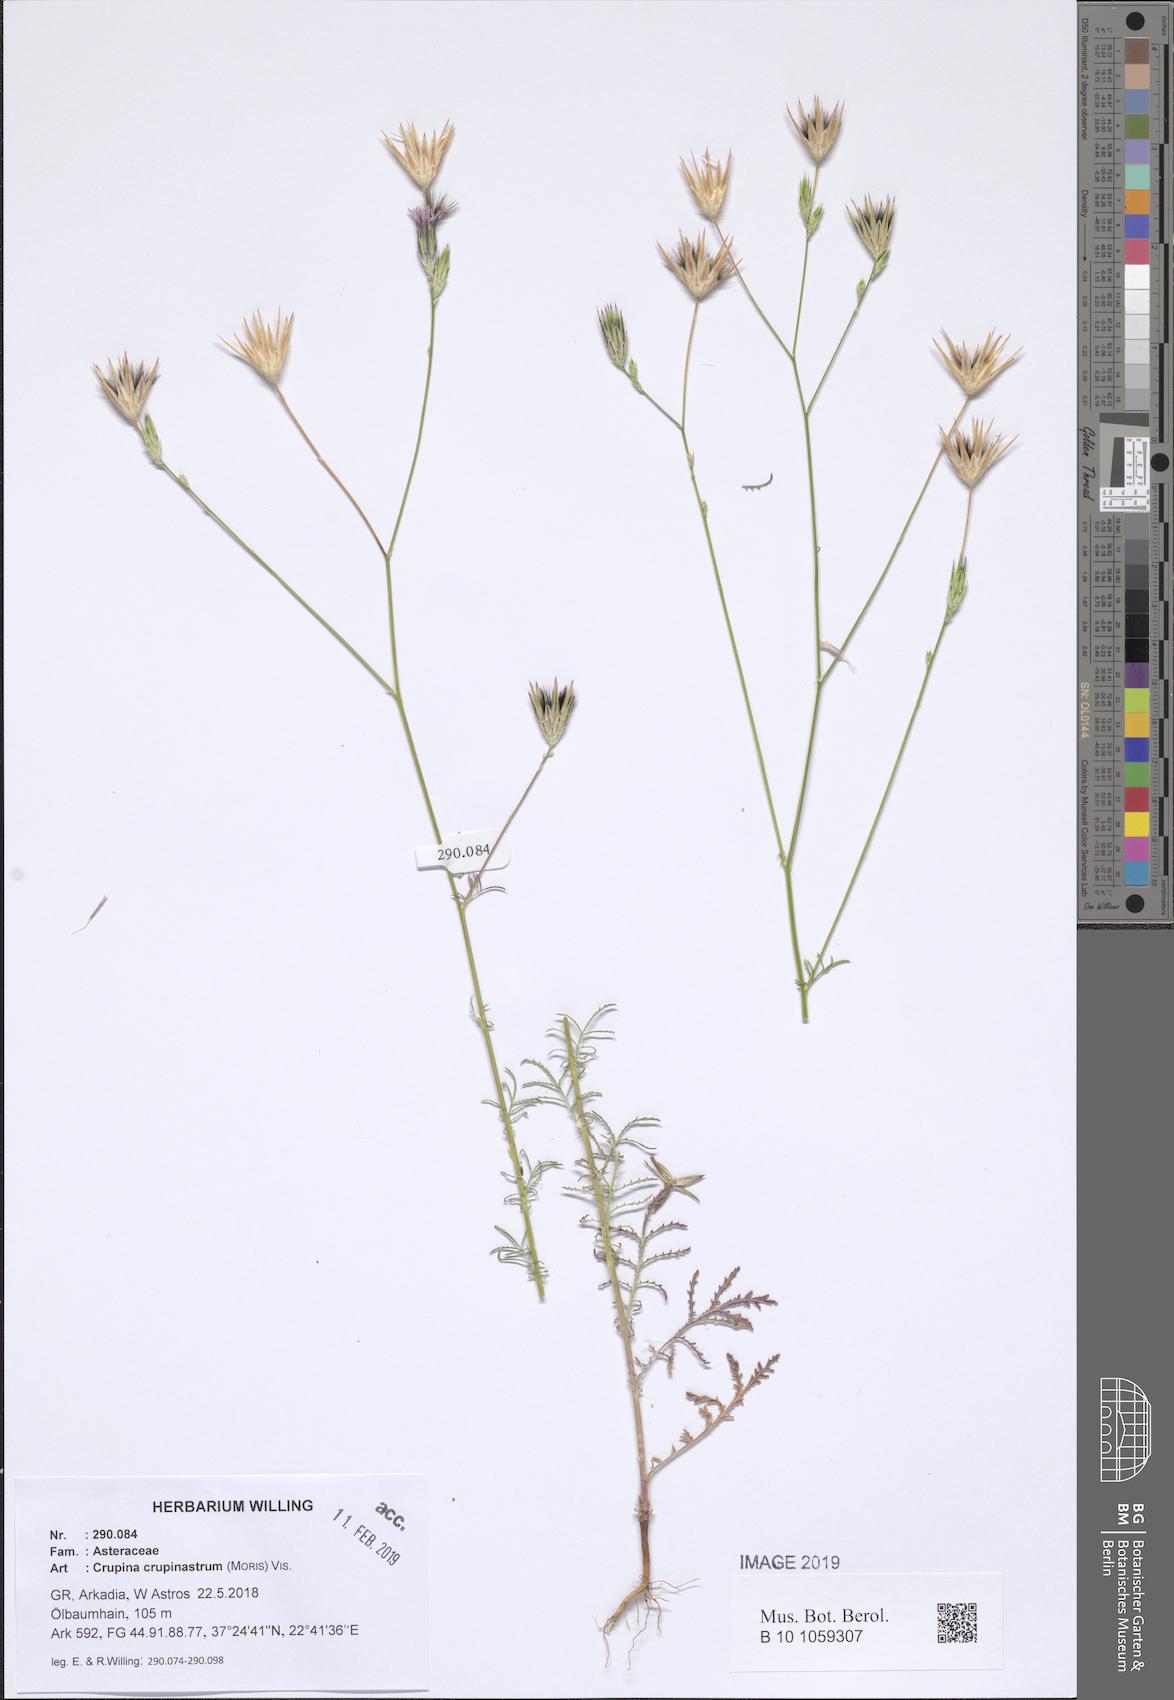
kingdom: Plantae
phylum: Tracheophyta
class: Magnoliopsida
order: Asterales
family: Asteraceae
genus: Crupina
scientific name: Crupina crupinastrum
